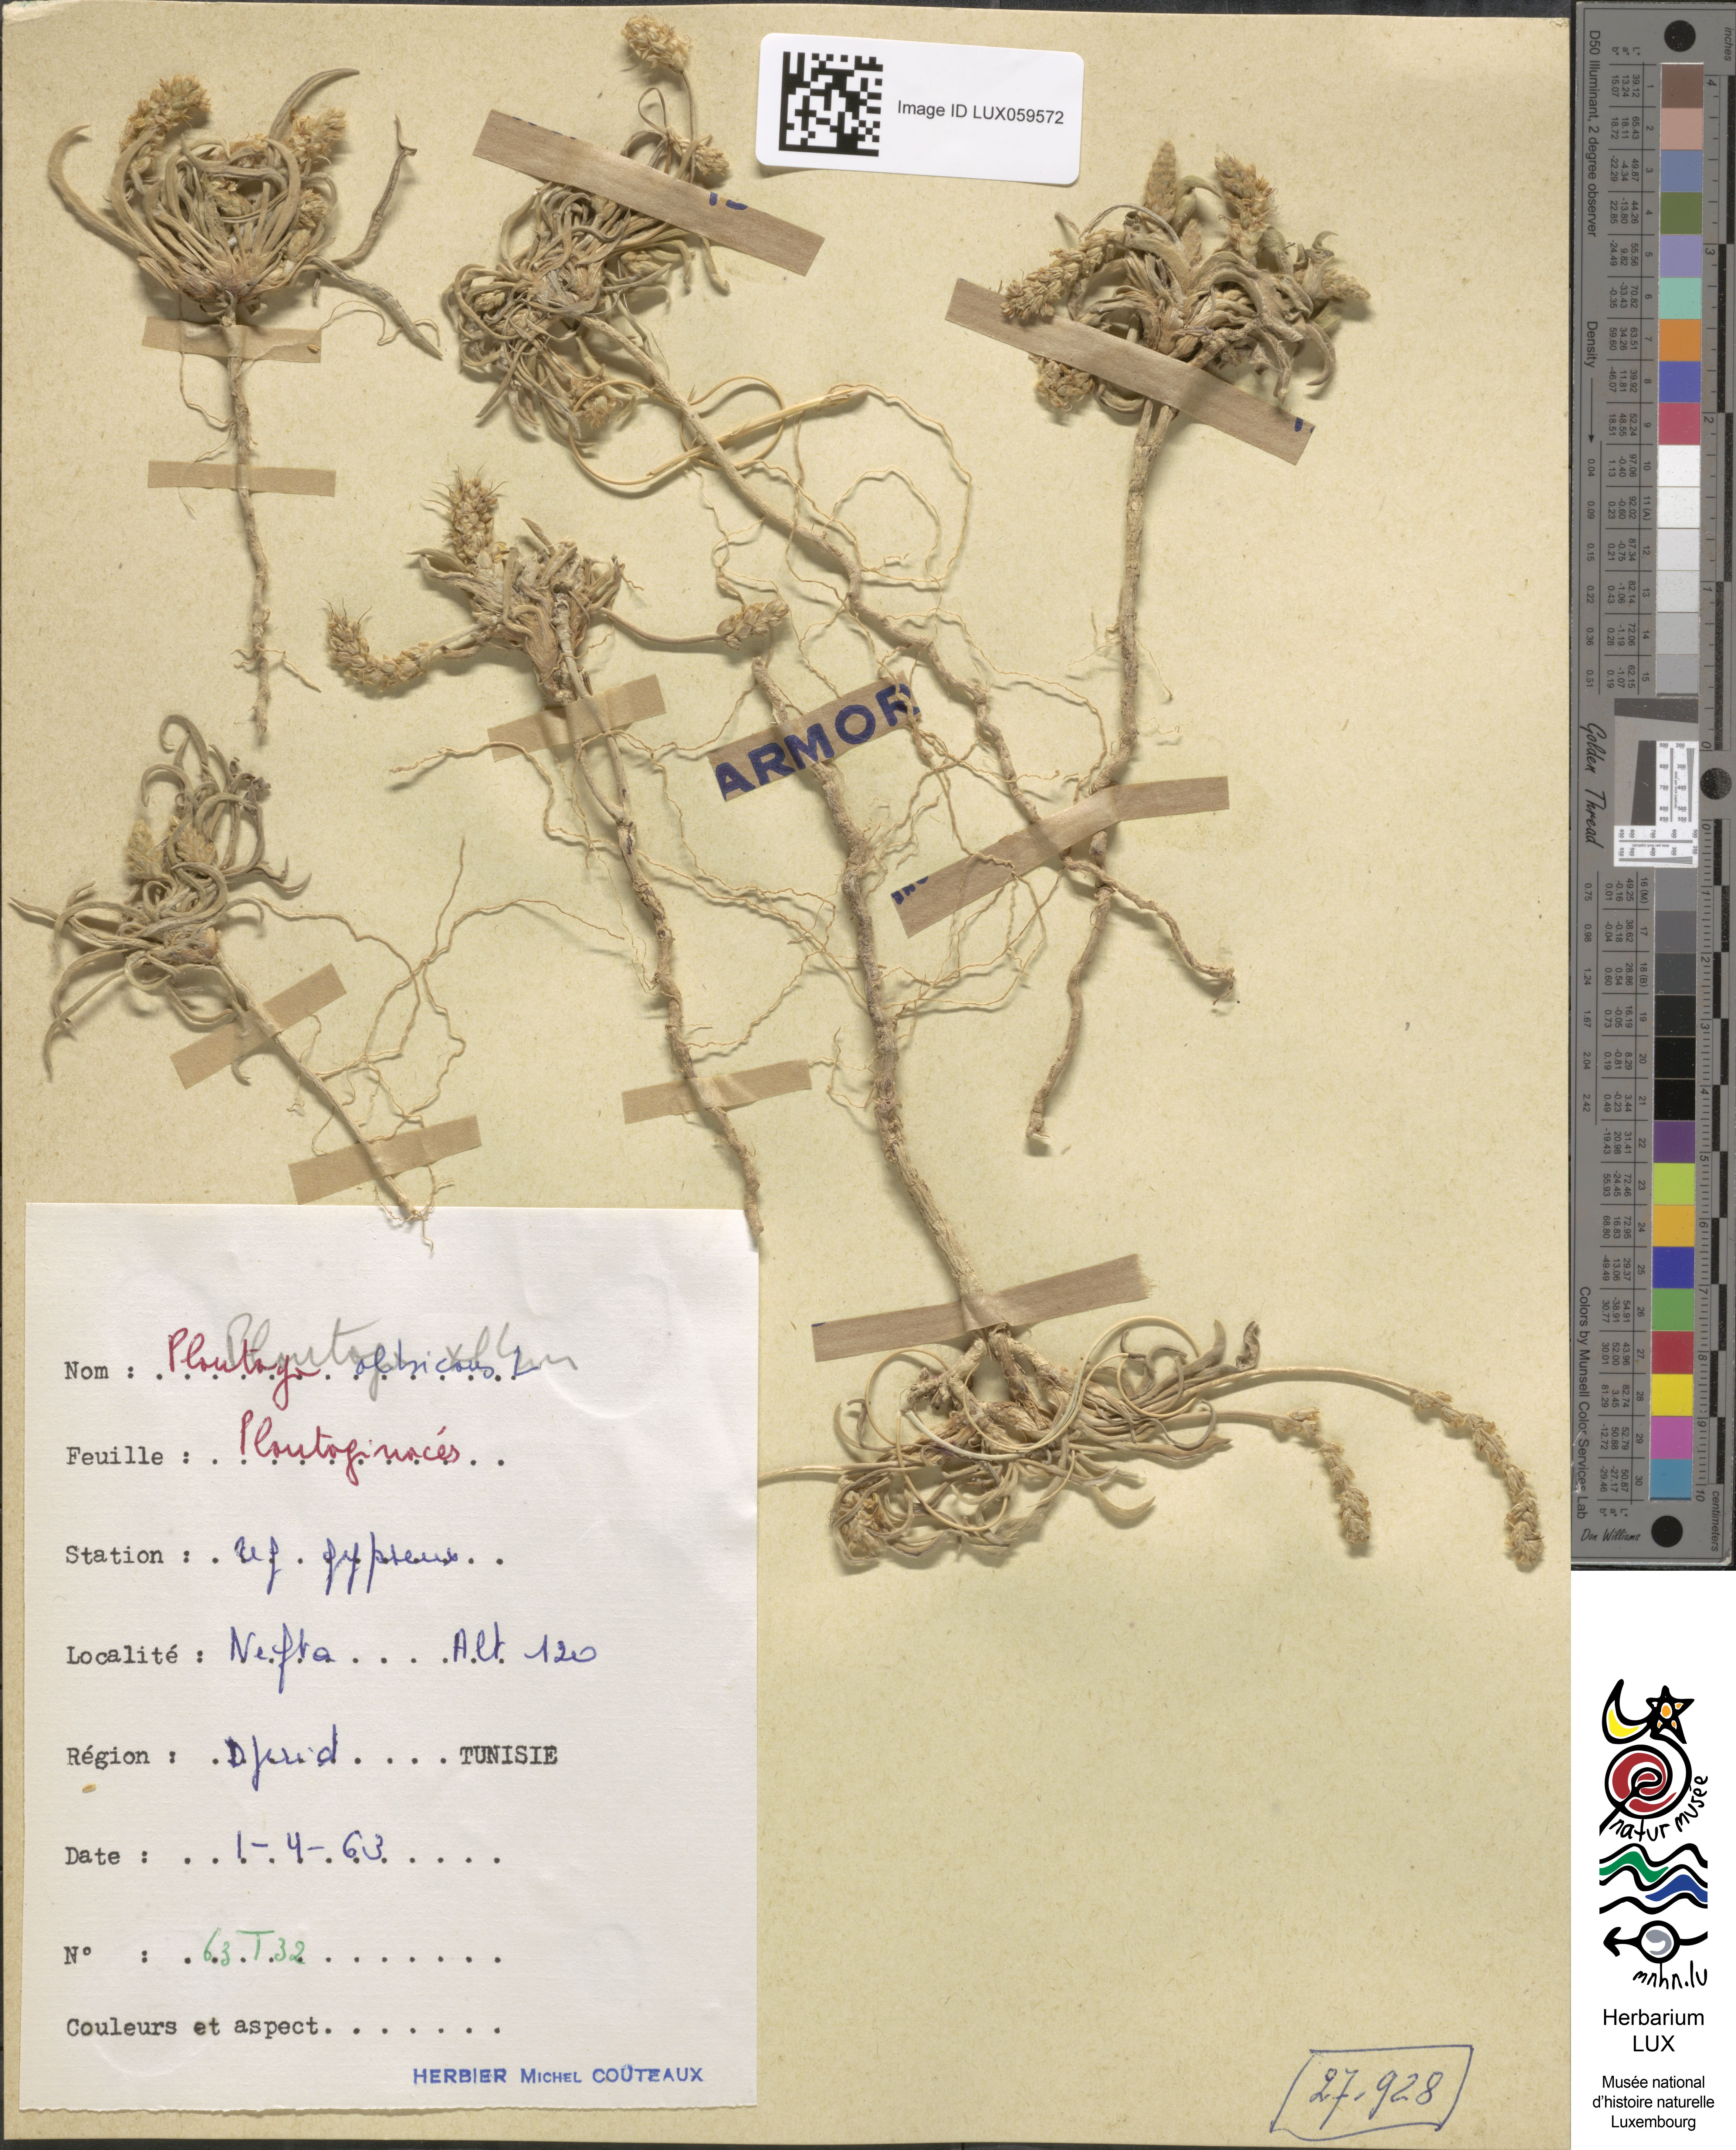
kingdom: Plantae
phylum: Tracheophyta
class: Magnoliopsida
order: Lamiales
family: Plantaginaceae
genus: Plantago
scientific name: Plantago albicans
